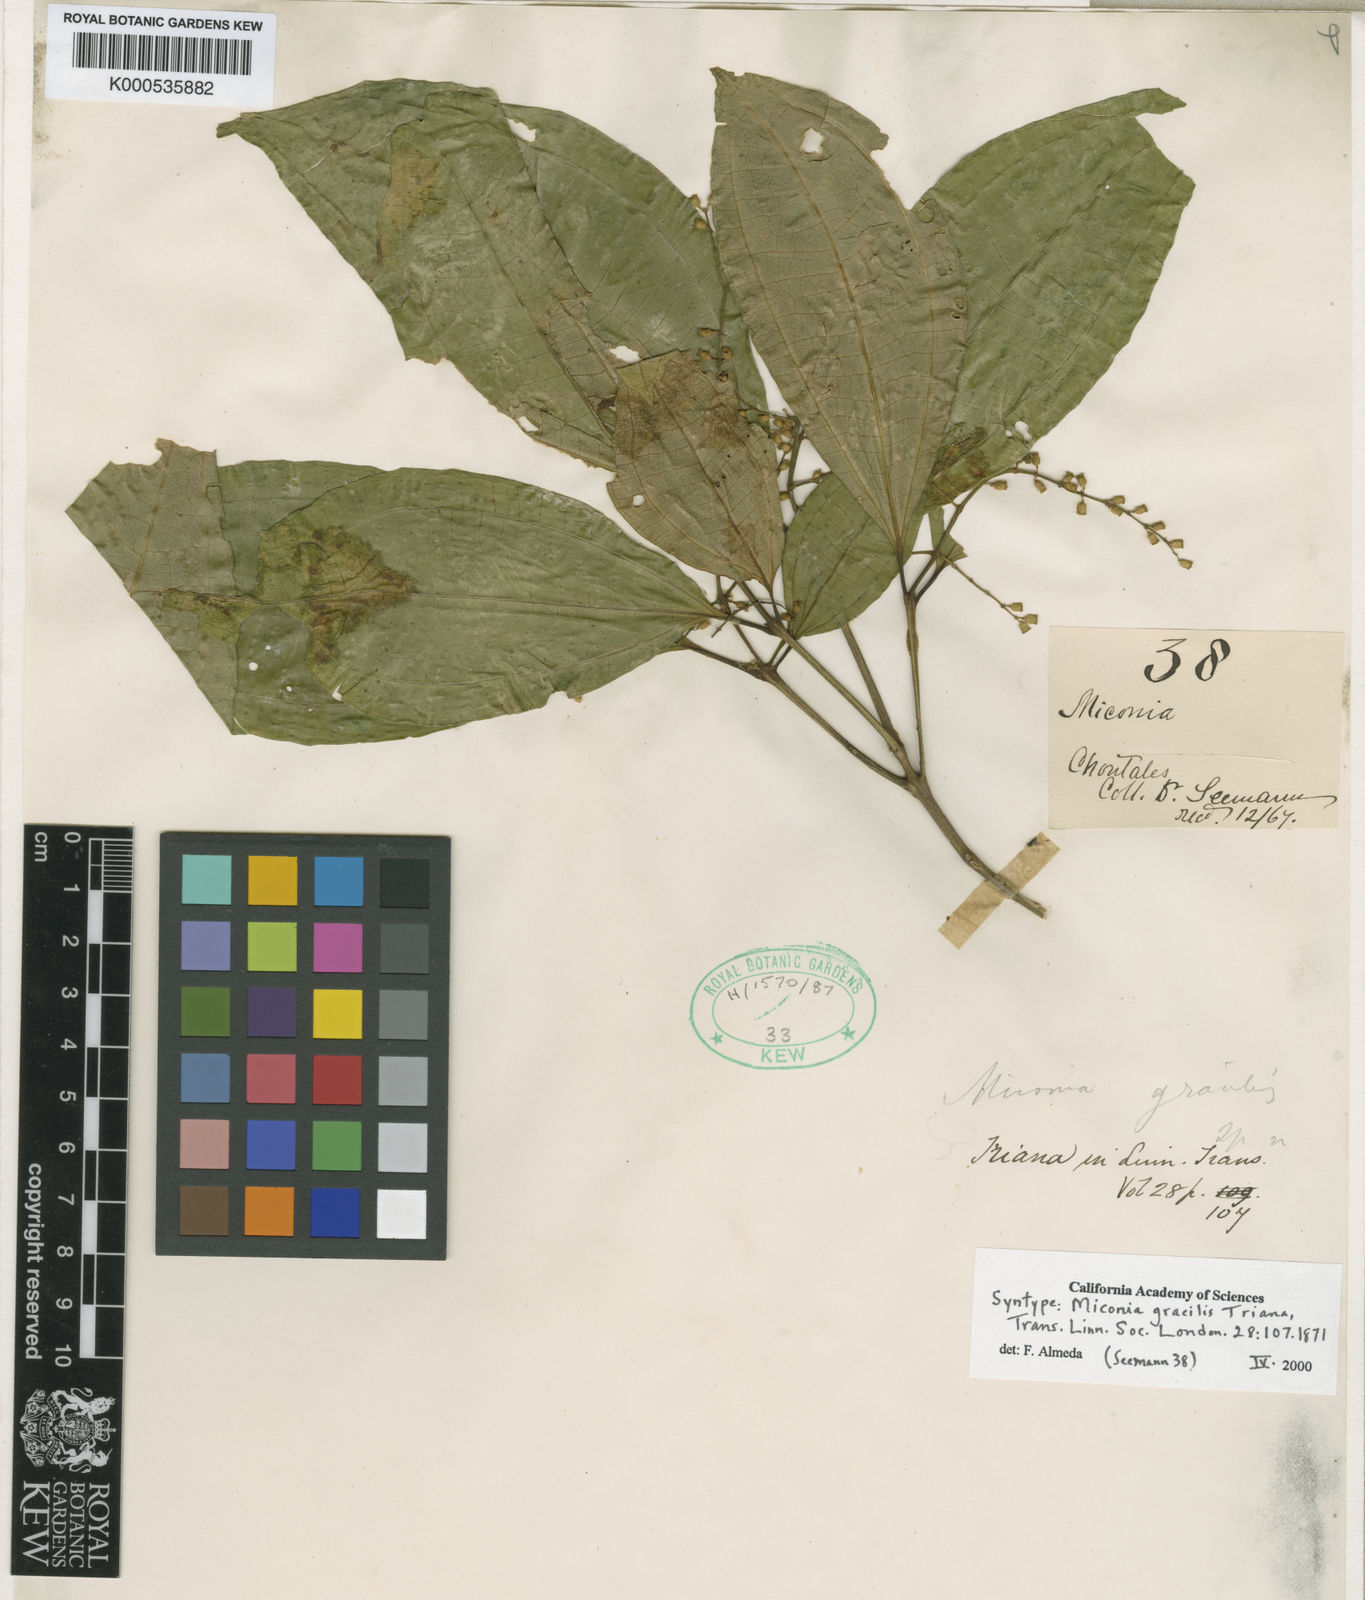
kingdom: Plantae
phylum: Tracheophyta
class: Magnoliopsida
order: Myrtales
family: Melastomataceae
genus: Miconia
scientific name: Miconia gracilis
